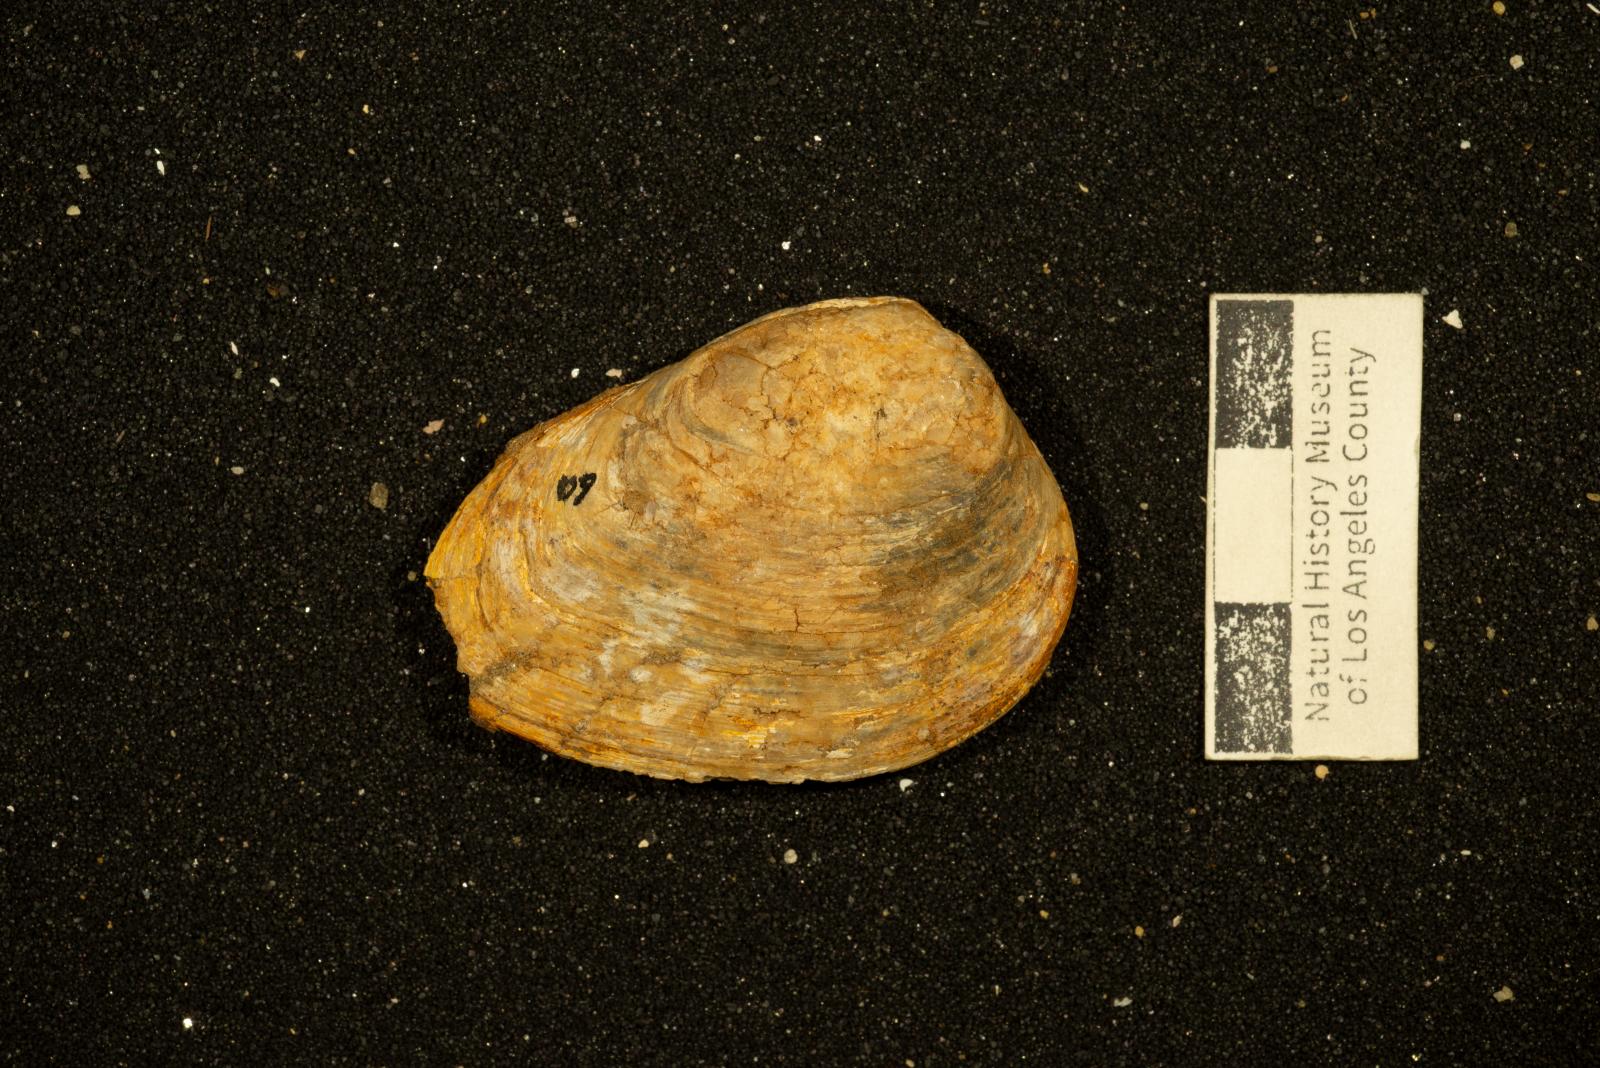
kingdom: Animalia
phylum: Mollusca
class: Bivalvia
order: Carditida
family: Astartidae
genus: Astarte
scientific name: Astarte tuscana
